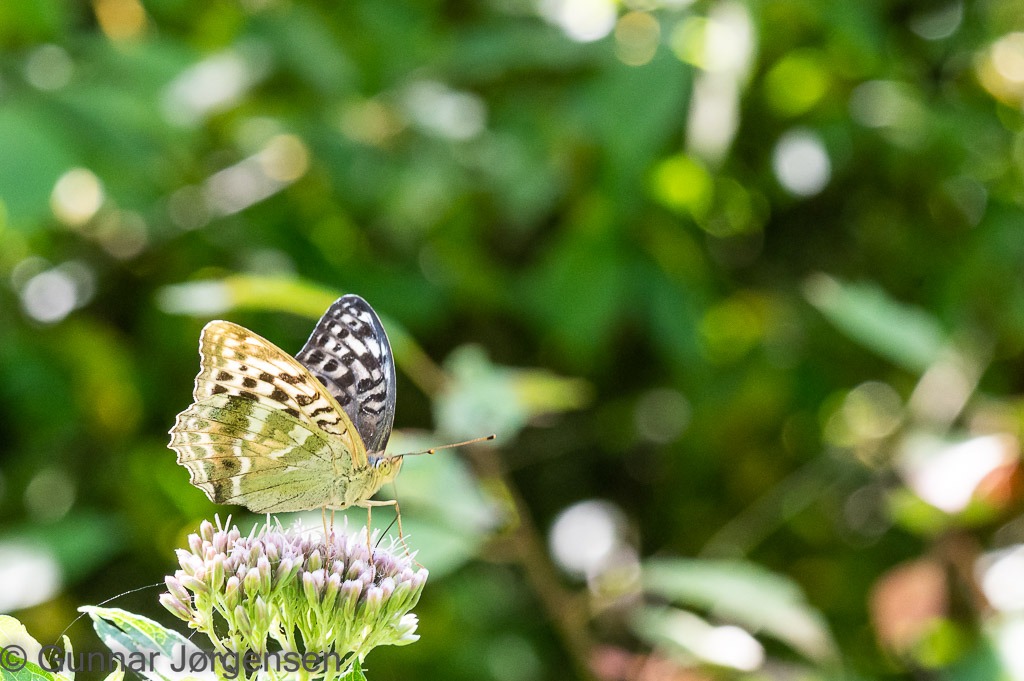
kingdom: Animalia
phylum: Arthropoda
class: Insecta
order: Lepidoptera
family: Nymphalidae
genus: Argynnis
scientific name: Argynnis paphia
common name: Kejserkåbe
